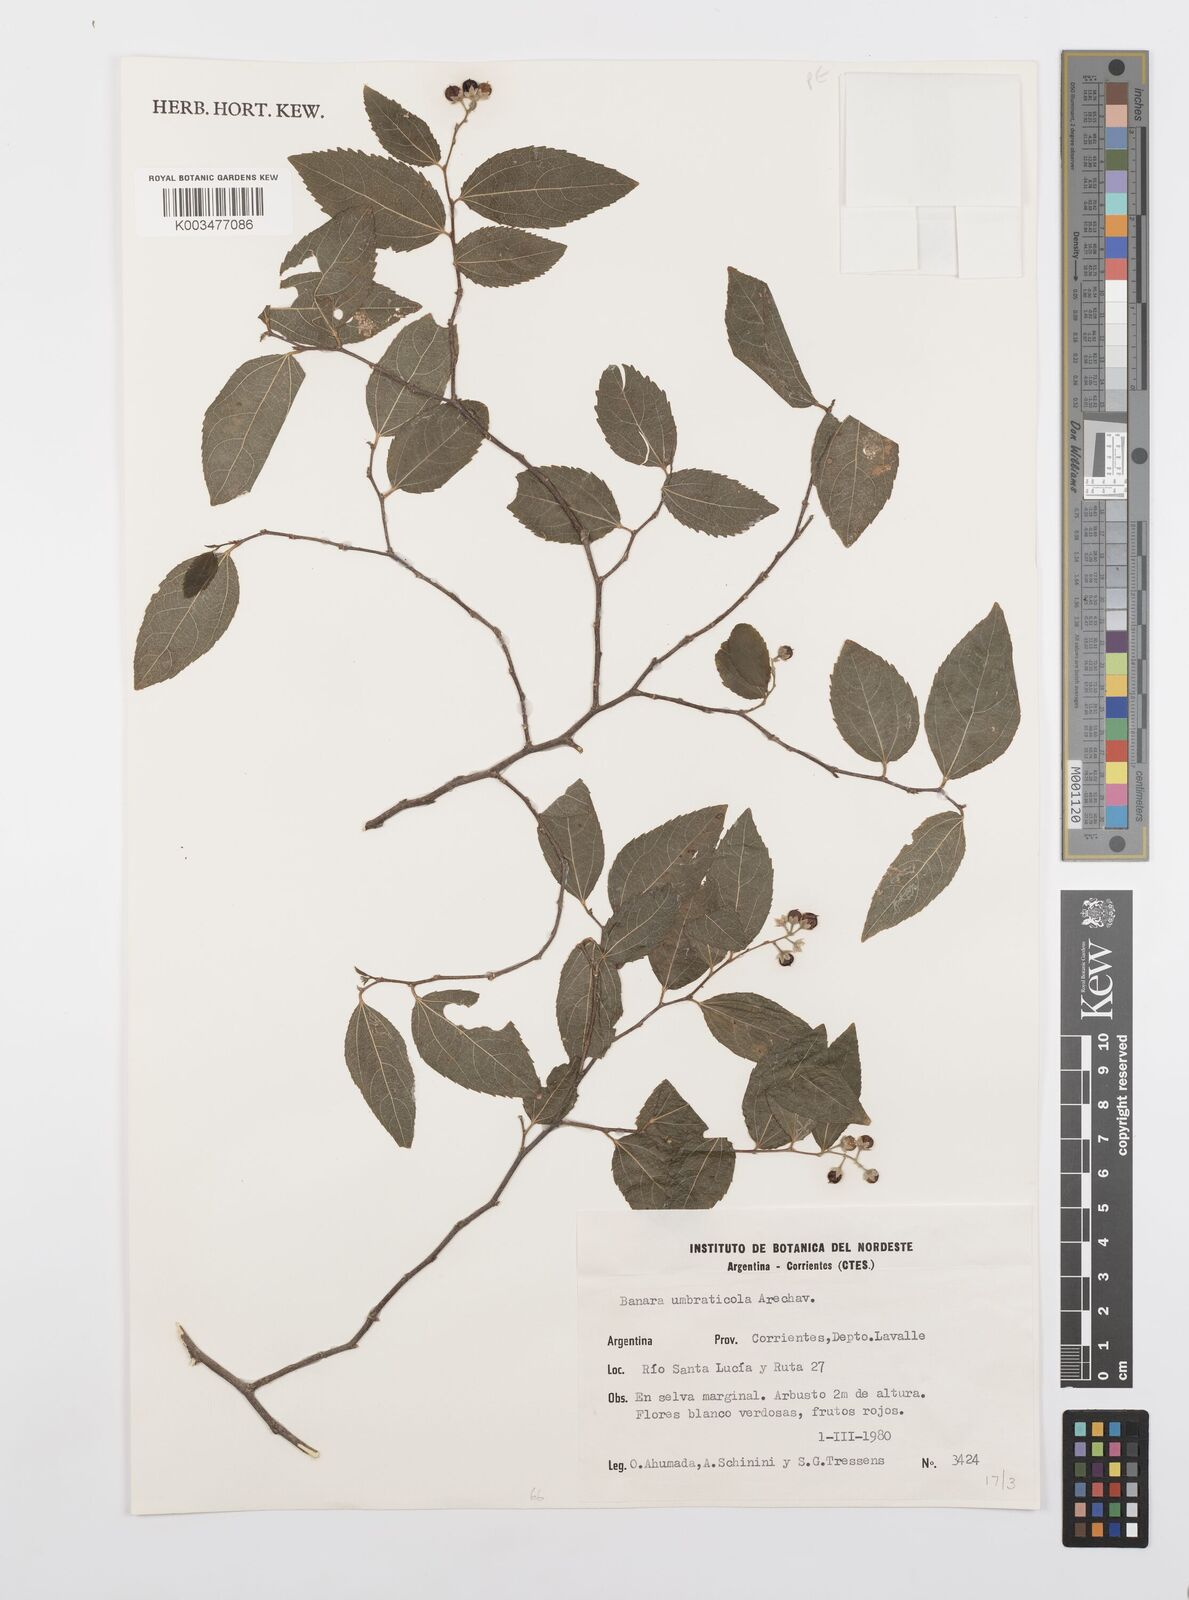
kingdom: Plantae
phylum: Tracheophyta
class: Magnoliopsida
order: Malpighiales
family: Salicaceae
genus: Banara
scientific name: Banara umbraticola
